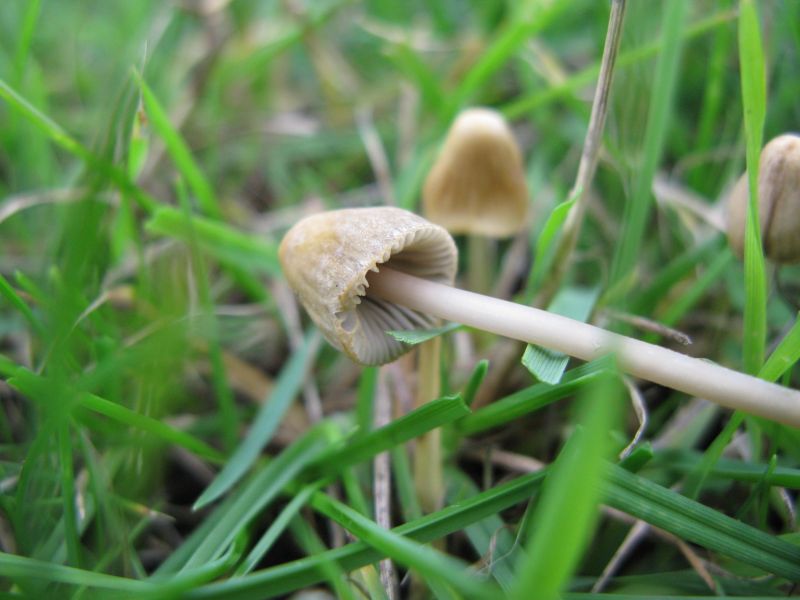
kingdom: Fungi
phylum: Basidiomycota
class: Agaricomycetes
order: Agaricales
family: Mycenaceae
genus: Mycena
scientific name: Mycena olivaceomarginata
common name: brunægget huesvamp
